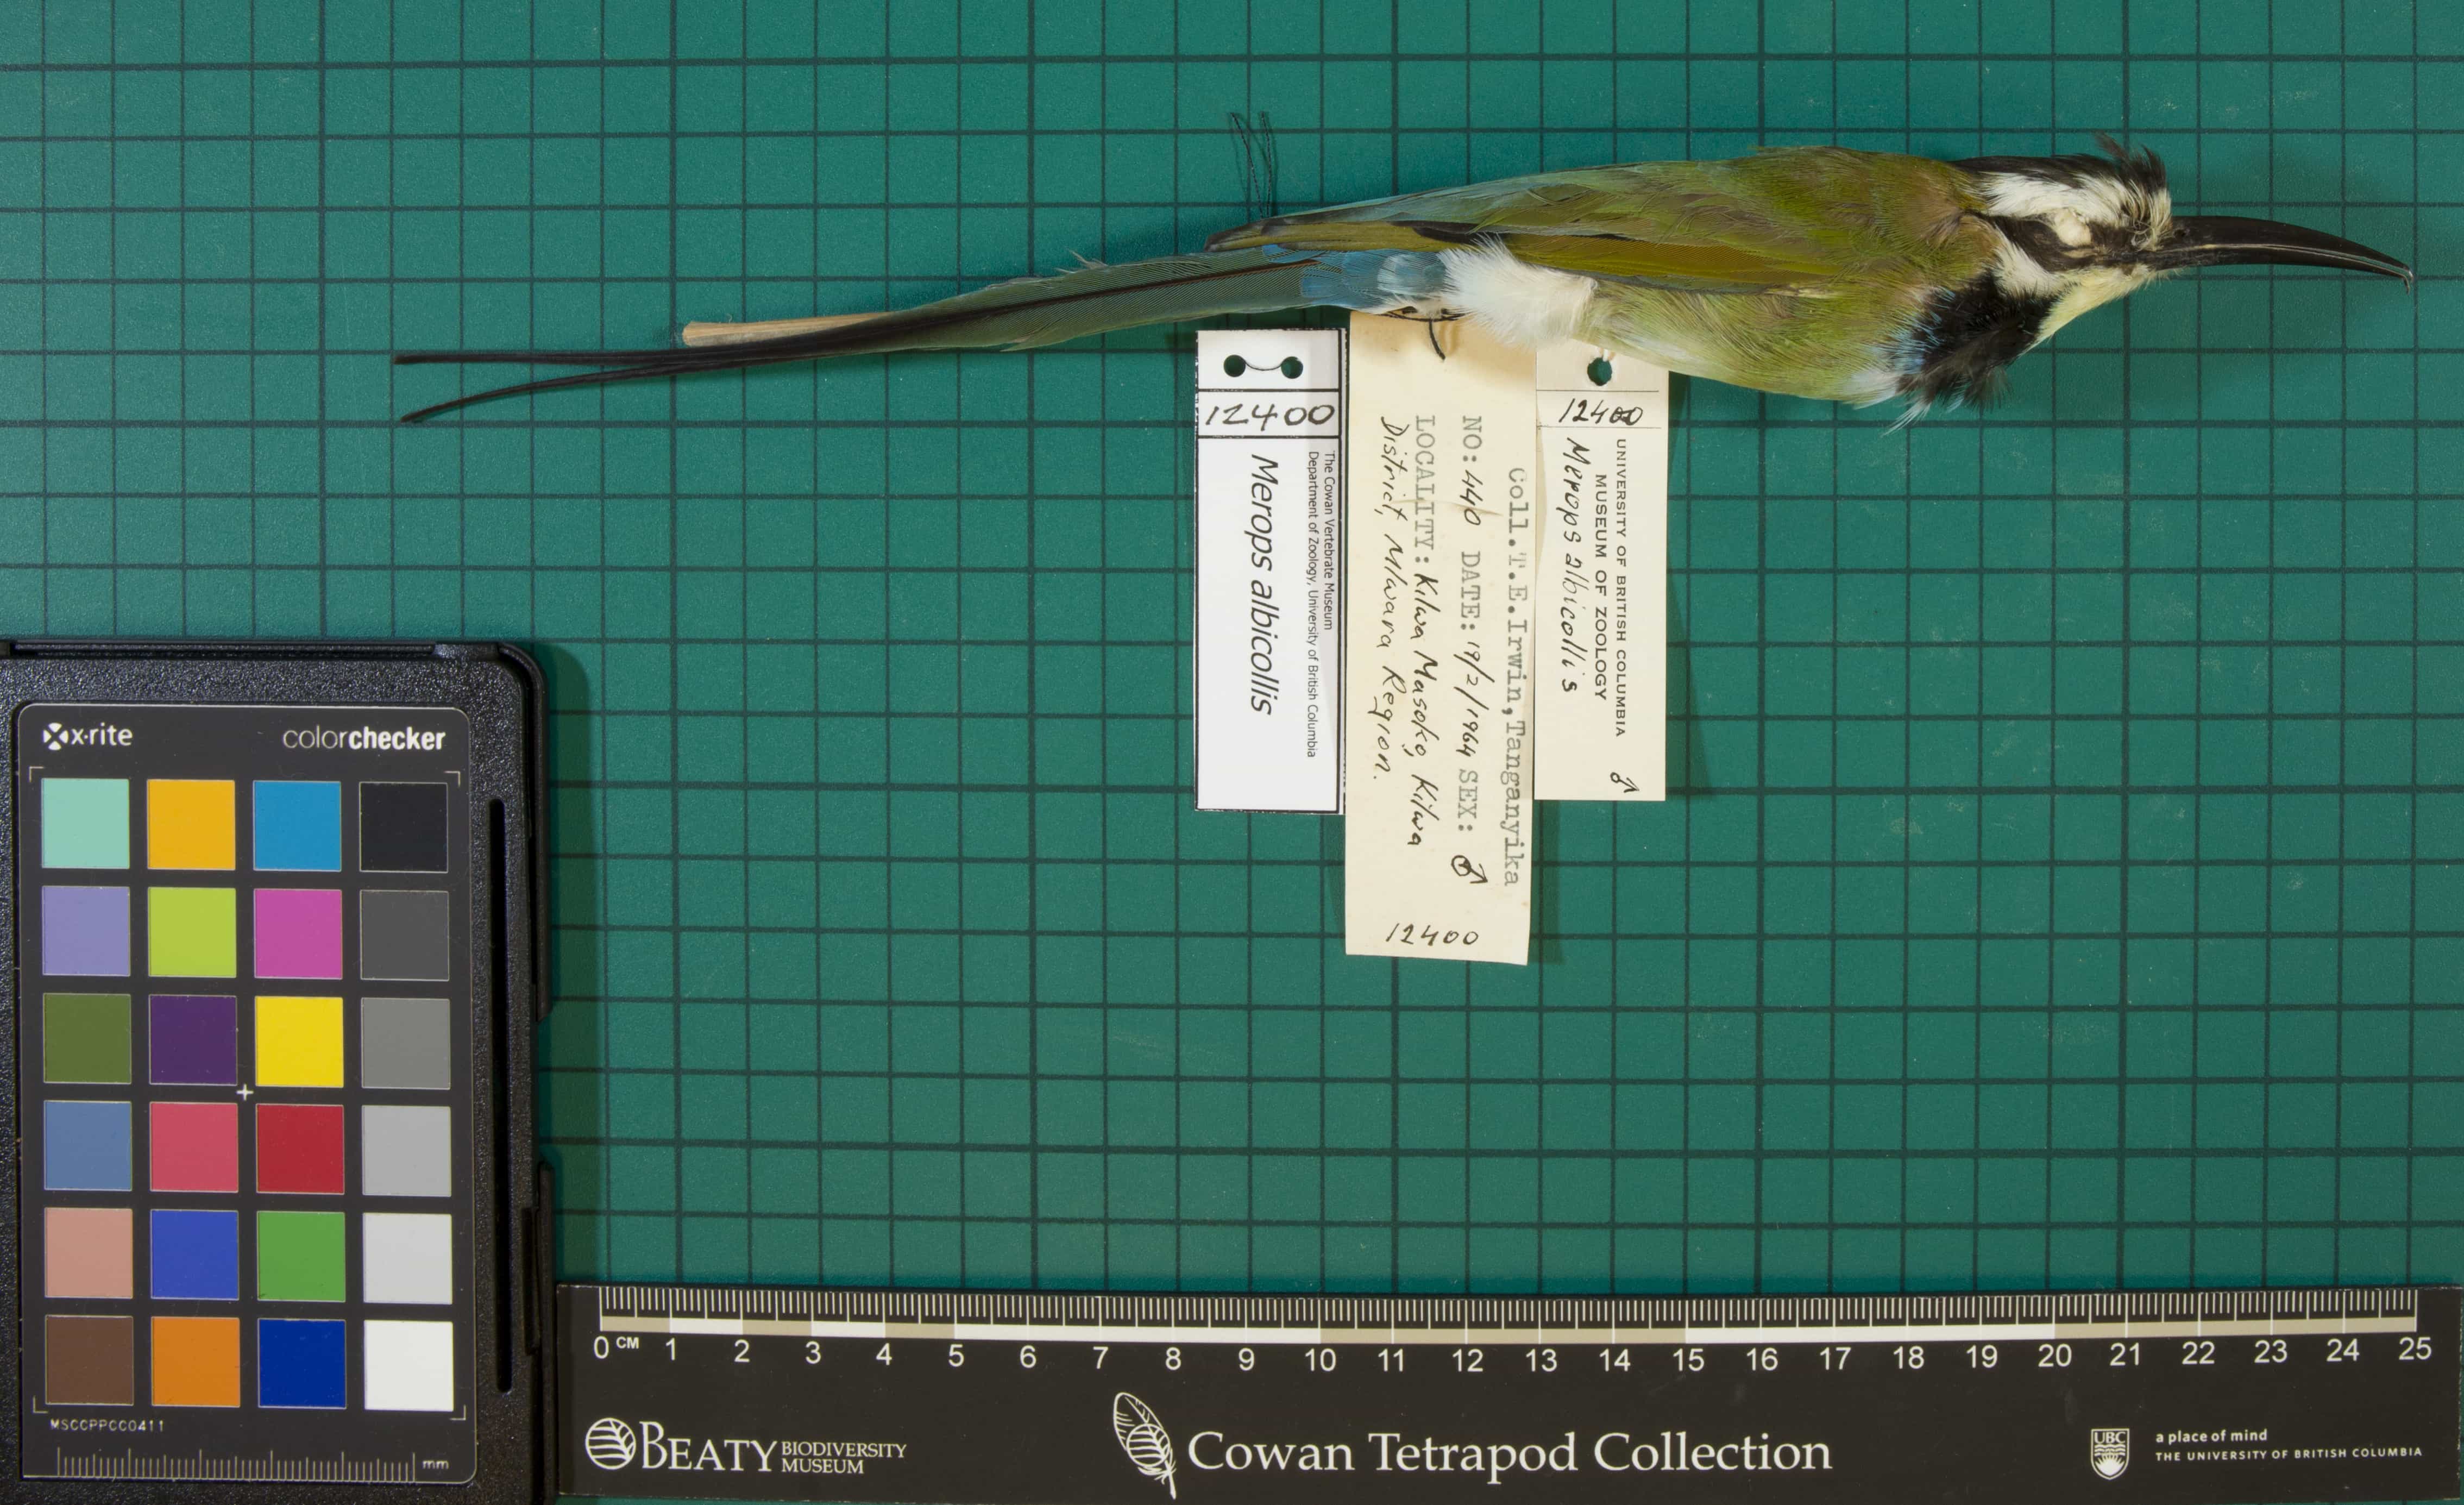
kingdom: Animalia
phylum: Chordata
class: Aves
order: Coraciiformes
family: Meropidae
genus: Merops
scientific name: Merops albicollis
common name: White-throated Bee-eater
